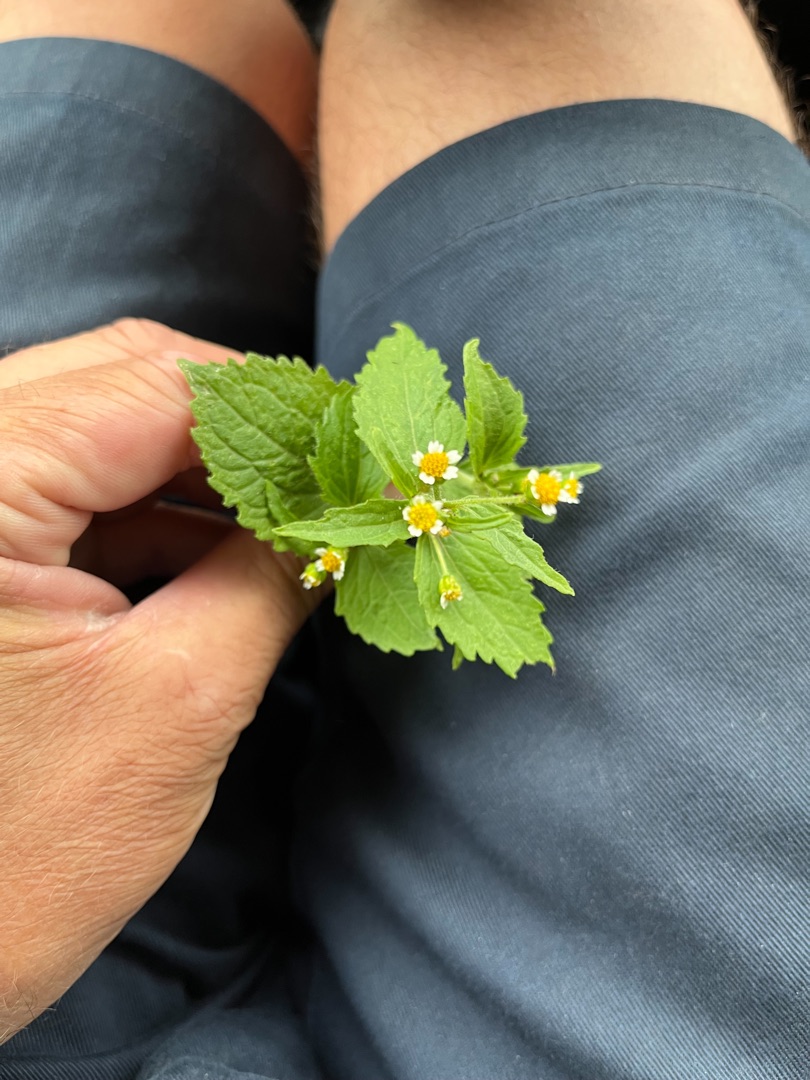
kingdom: Plantae
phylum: Tracheophyta
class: Magnoliopsida
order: Asterales
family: Asteraceae
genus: Galinsoga
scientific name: Galinsoga quadriradiata
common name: Kirtel-kortstråle
